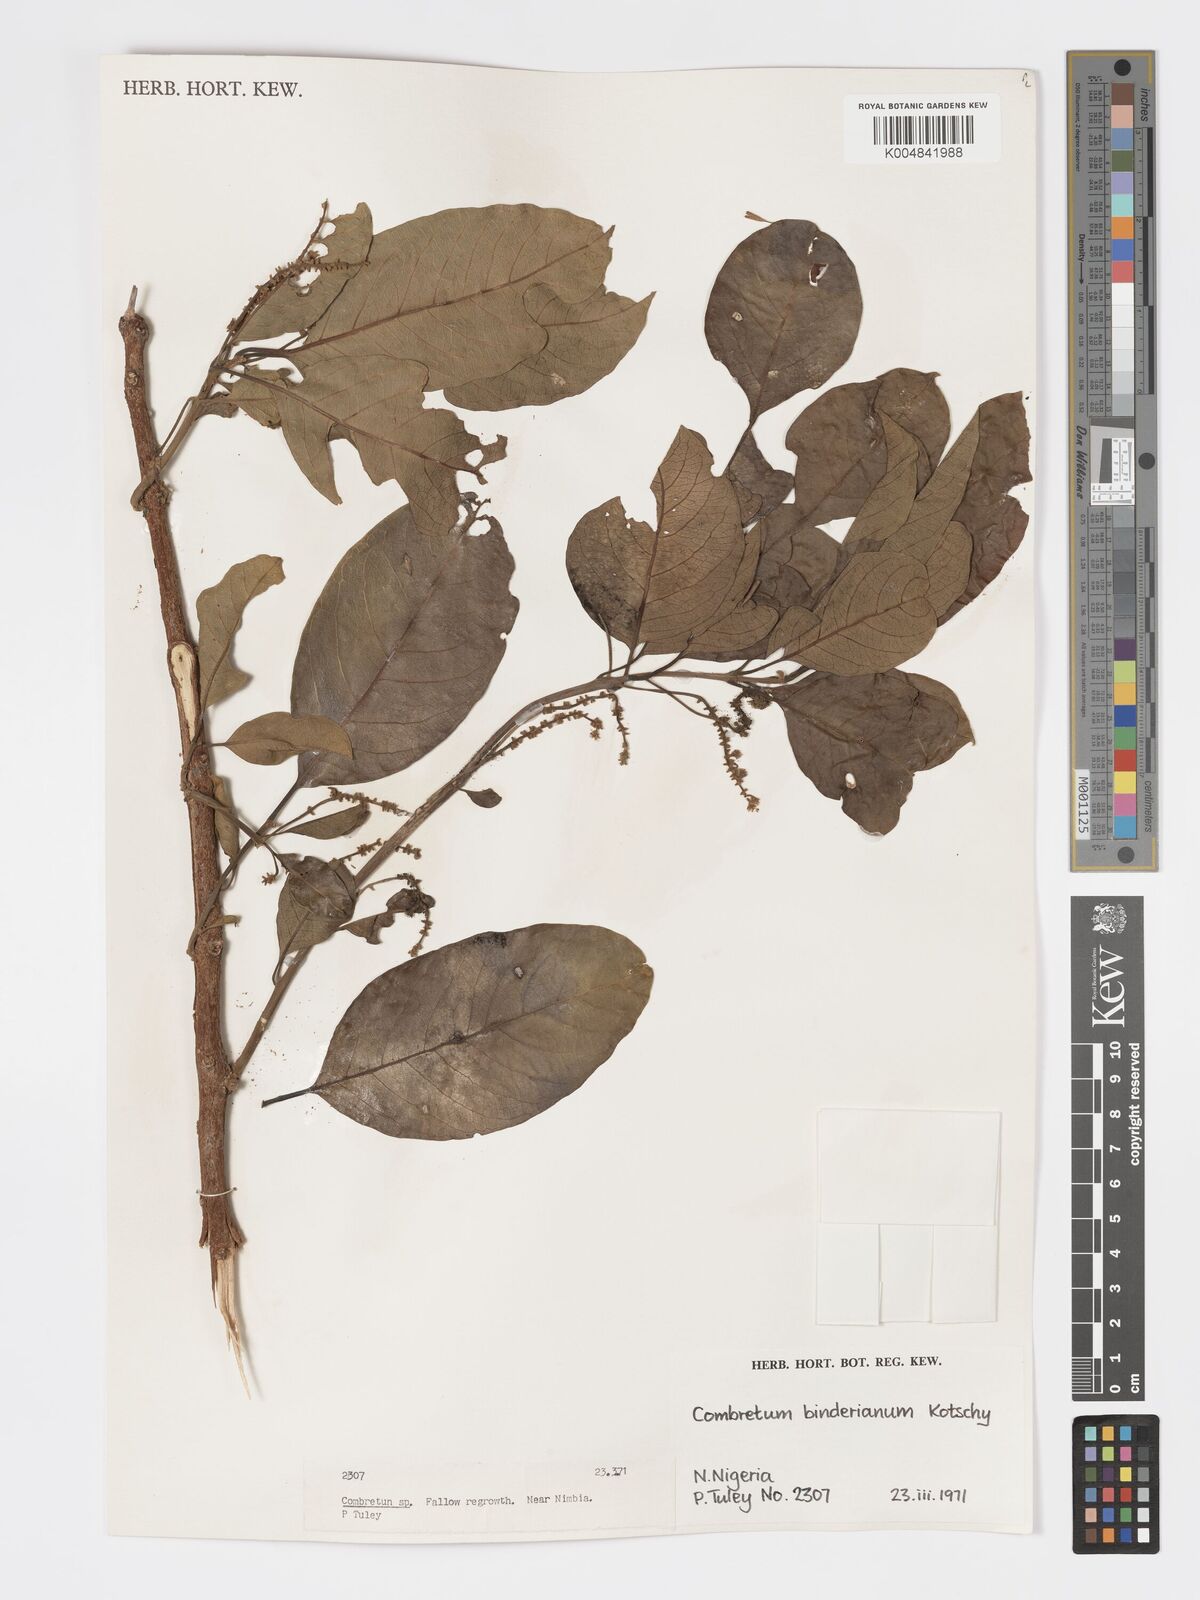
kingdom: Plantae
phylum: Tracheophyta
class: Magnoliopsida
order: Myrtales
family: Combretaceae
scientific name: Combretaceae
